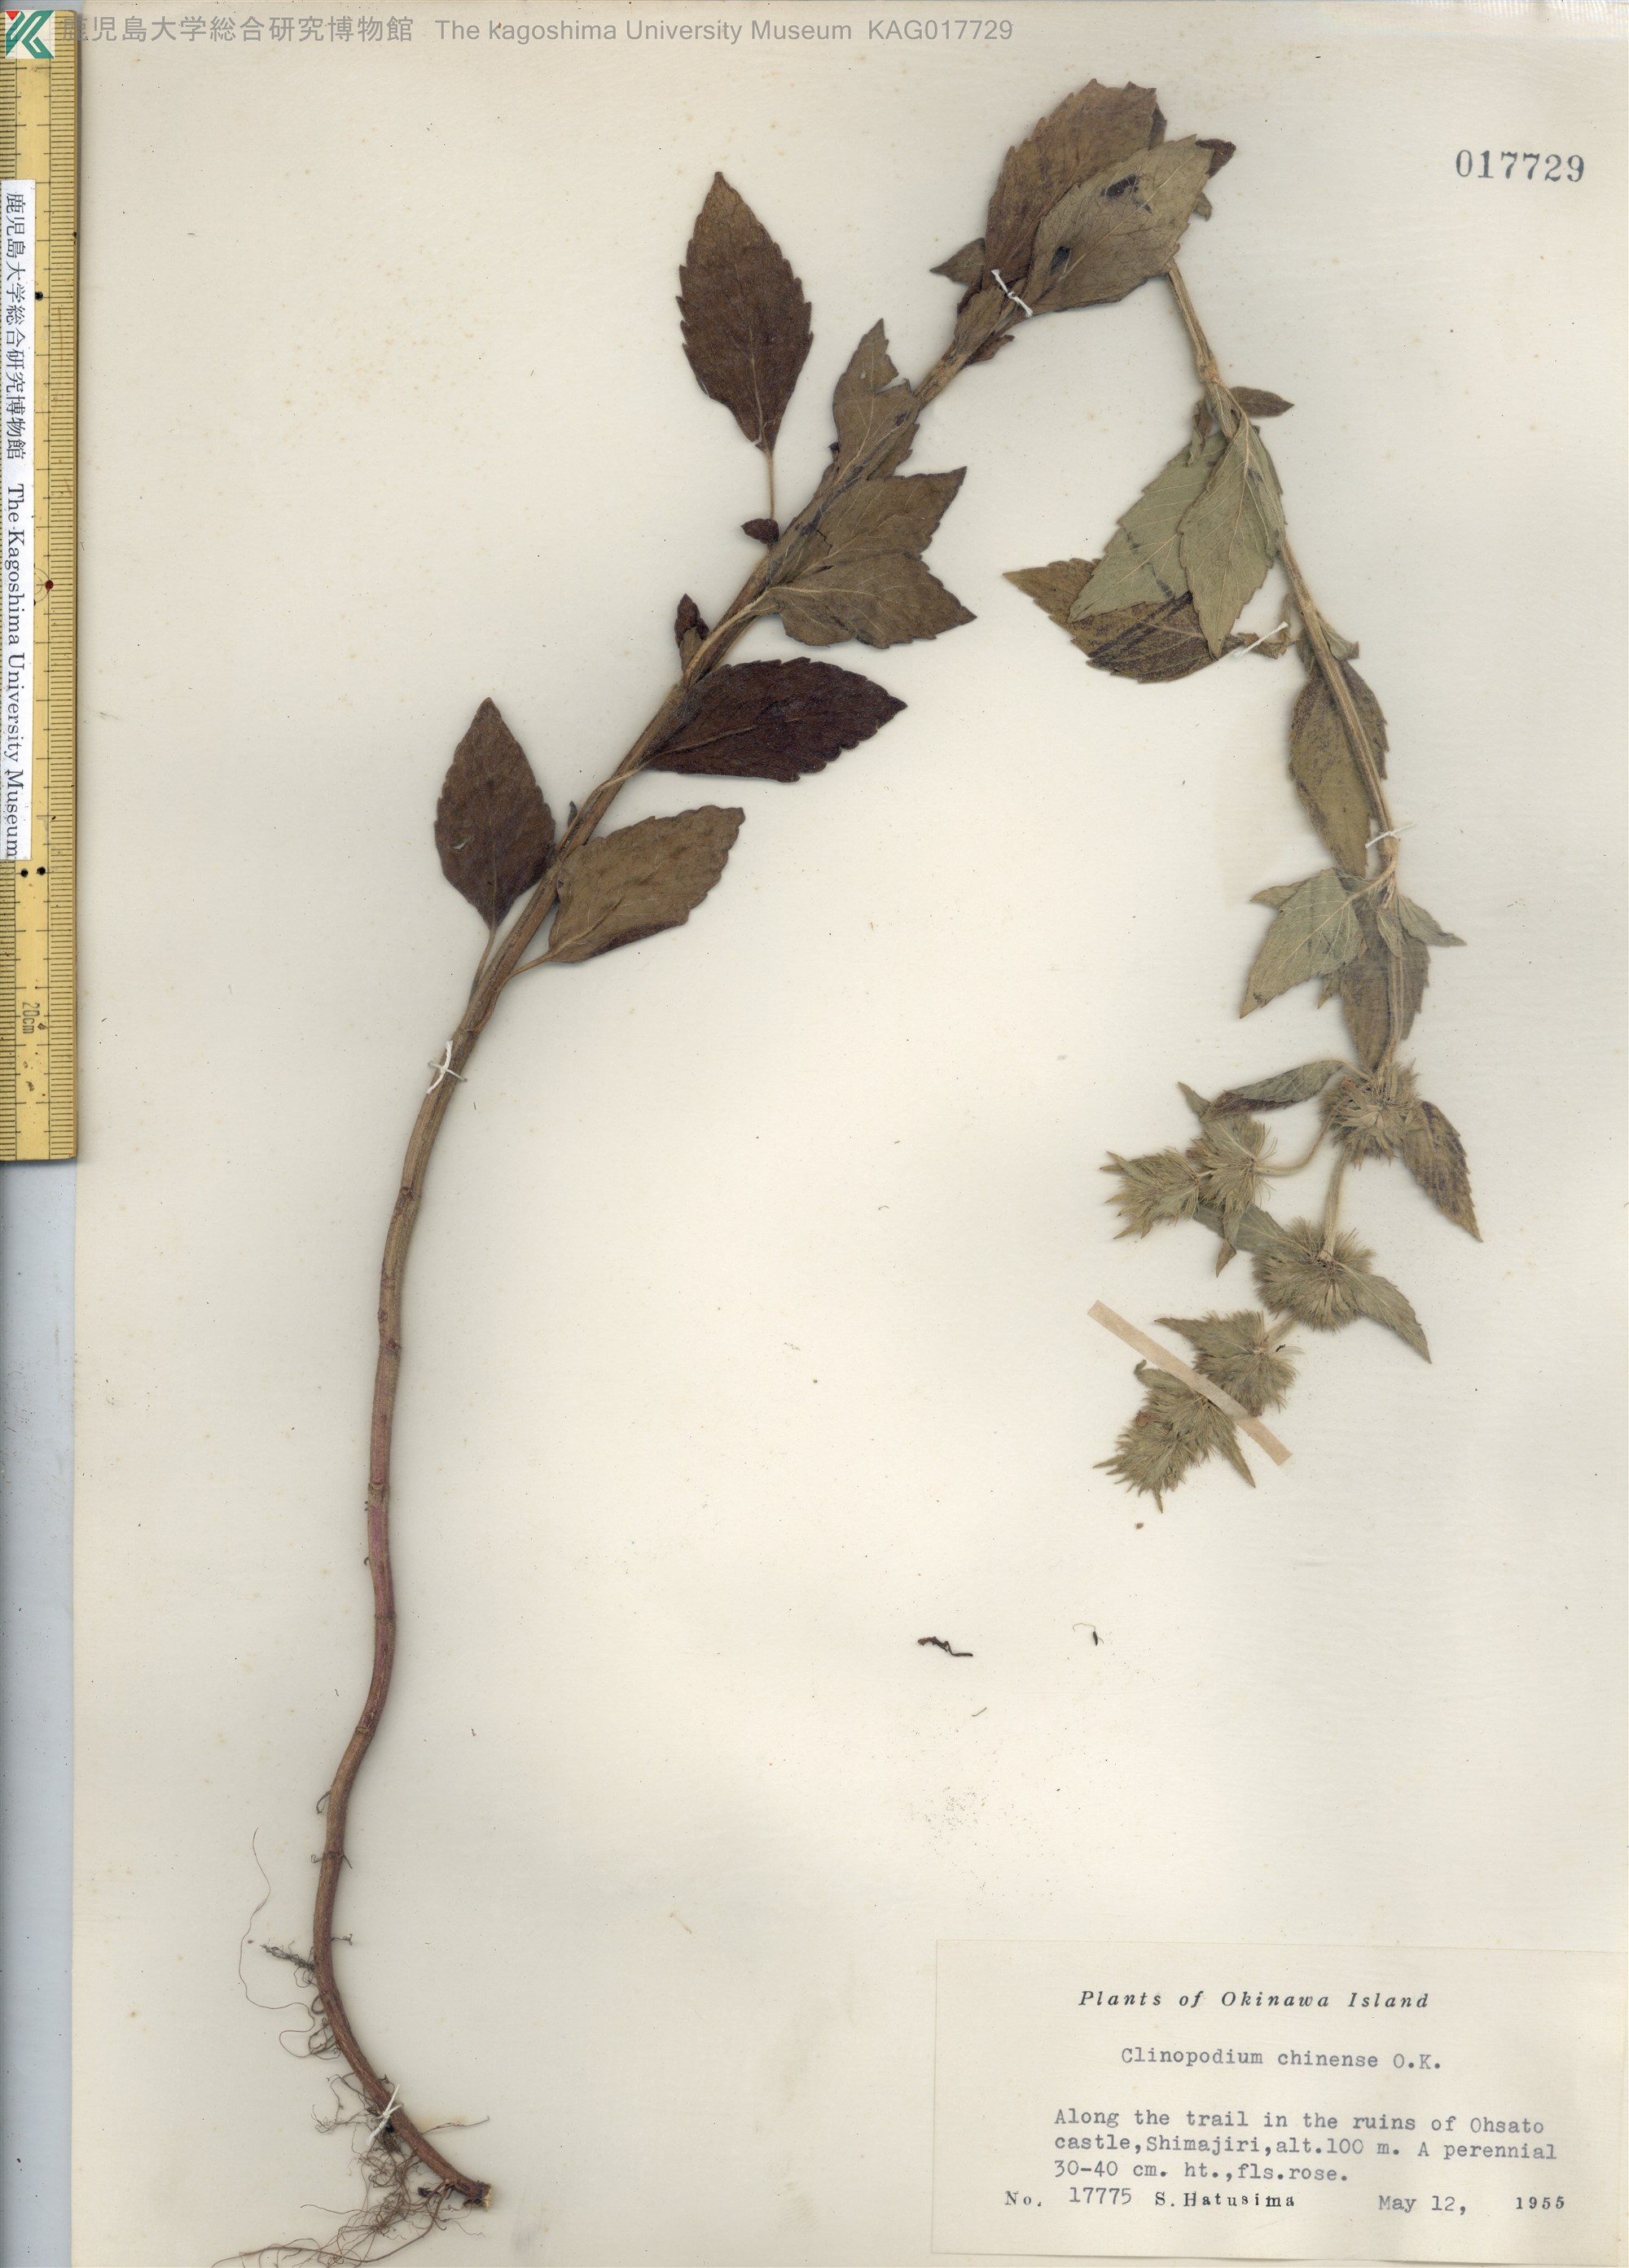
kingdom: Plantae
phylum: Tracheophyta
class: Magnoliopsida
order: Lamiales
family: Lamiaceae
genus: Clinopodium
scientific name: Clinopodium chinense
